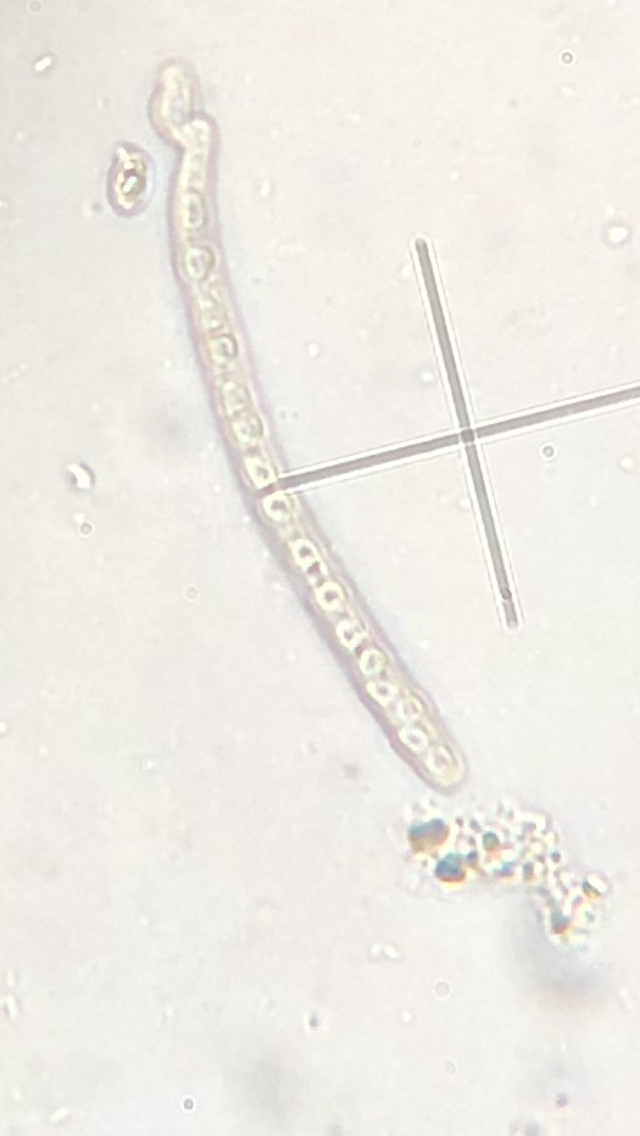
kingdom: Fungi
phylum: Ascomycota
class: Sordariomycetes
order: Hypocreales
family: Hypocreaceae
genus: Trichoderma
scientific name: Trichoderma leucopus
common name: lysstokket kødkerne
